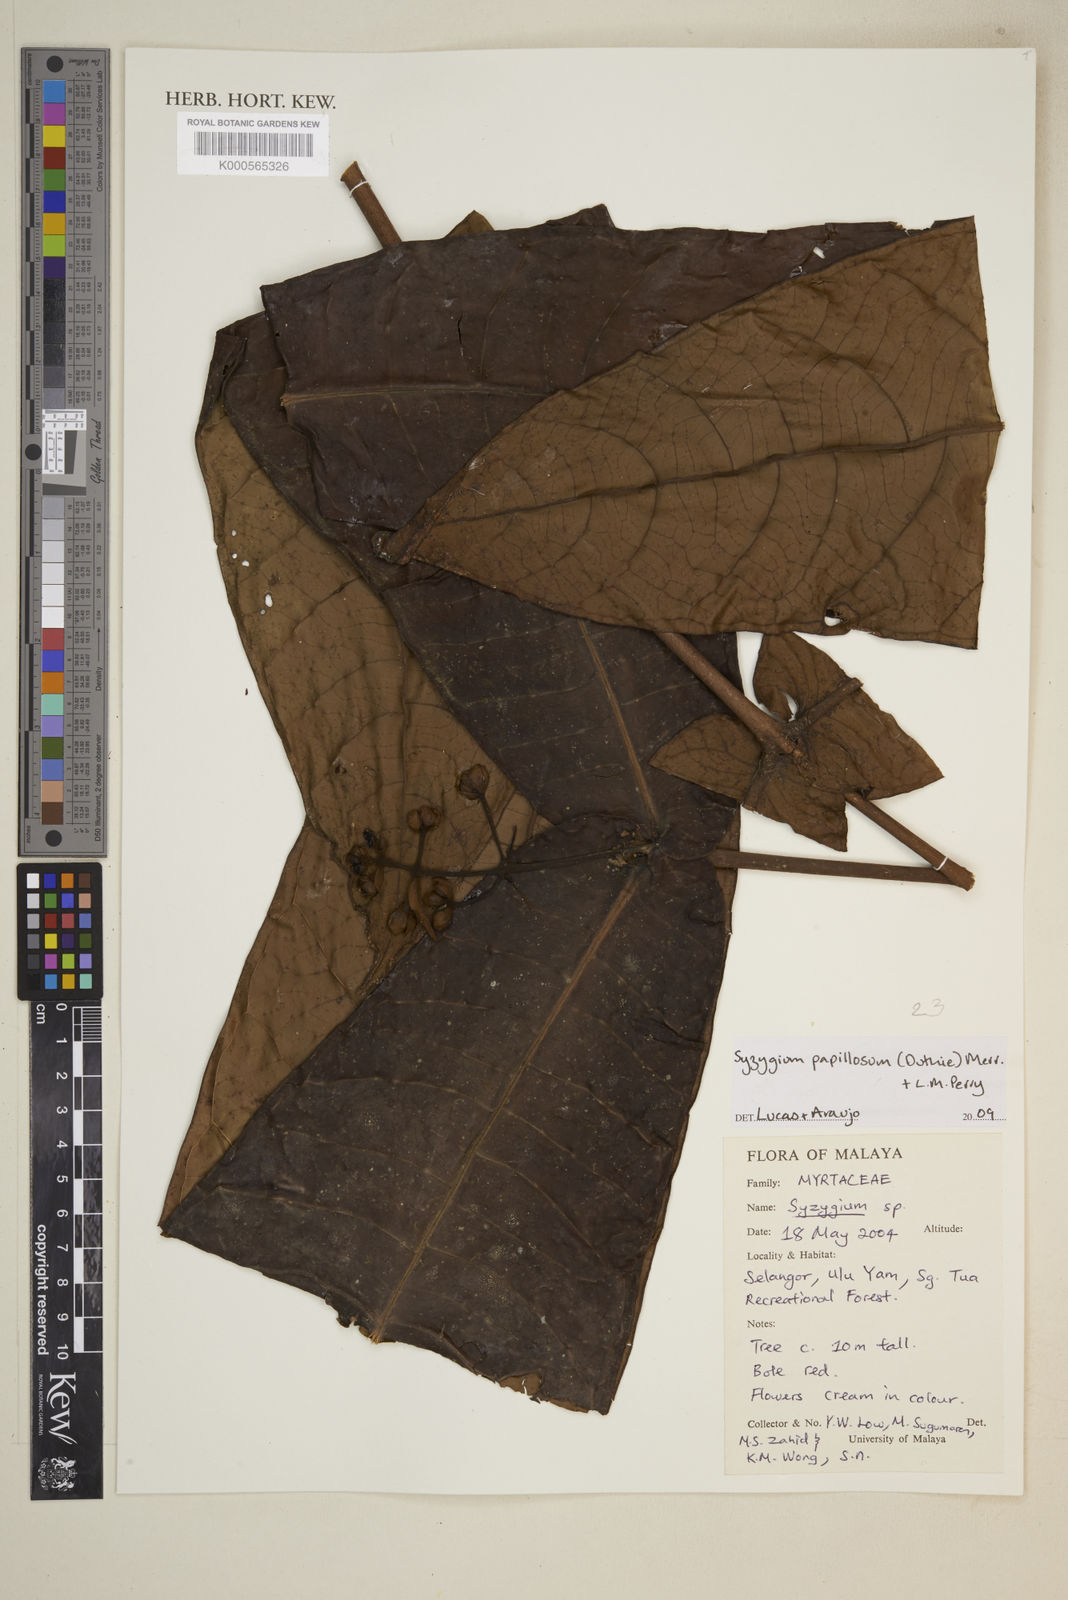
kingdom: Plantae
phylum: Tracheophyta
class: Magnoliopsida
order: Myrtales
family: Myrtaceae
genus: Syzygium
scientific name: Syzygium papillosum
